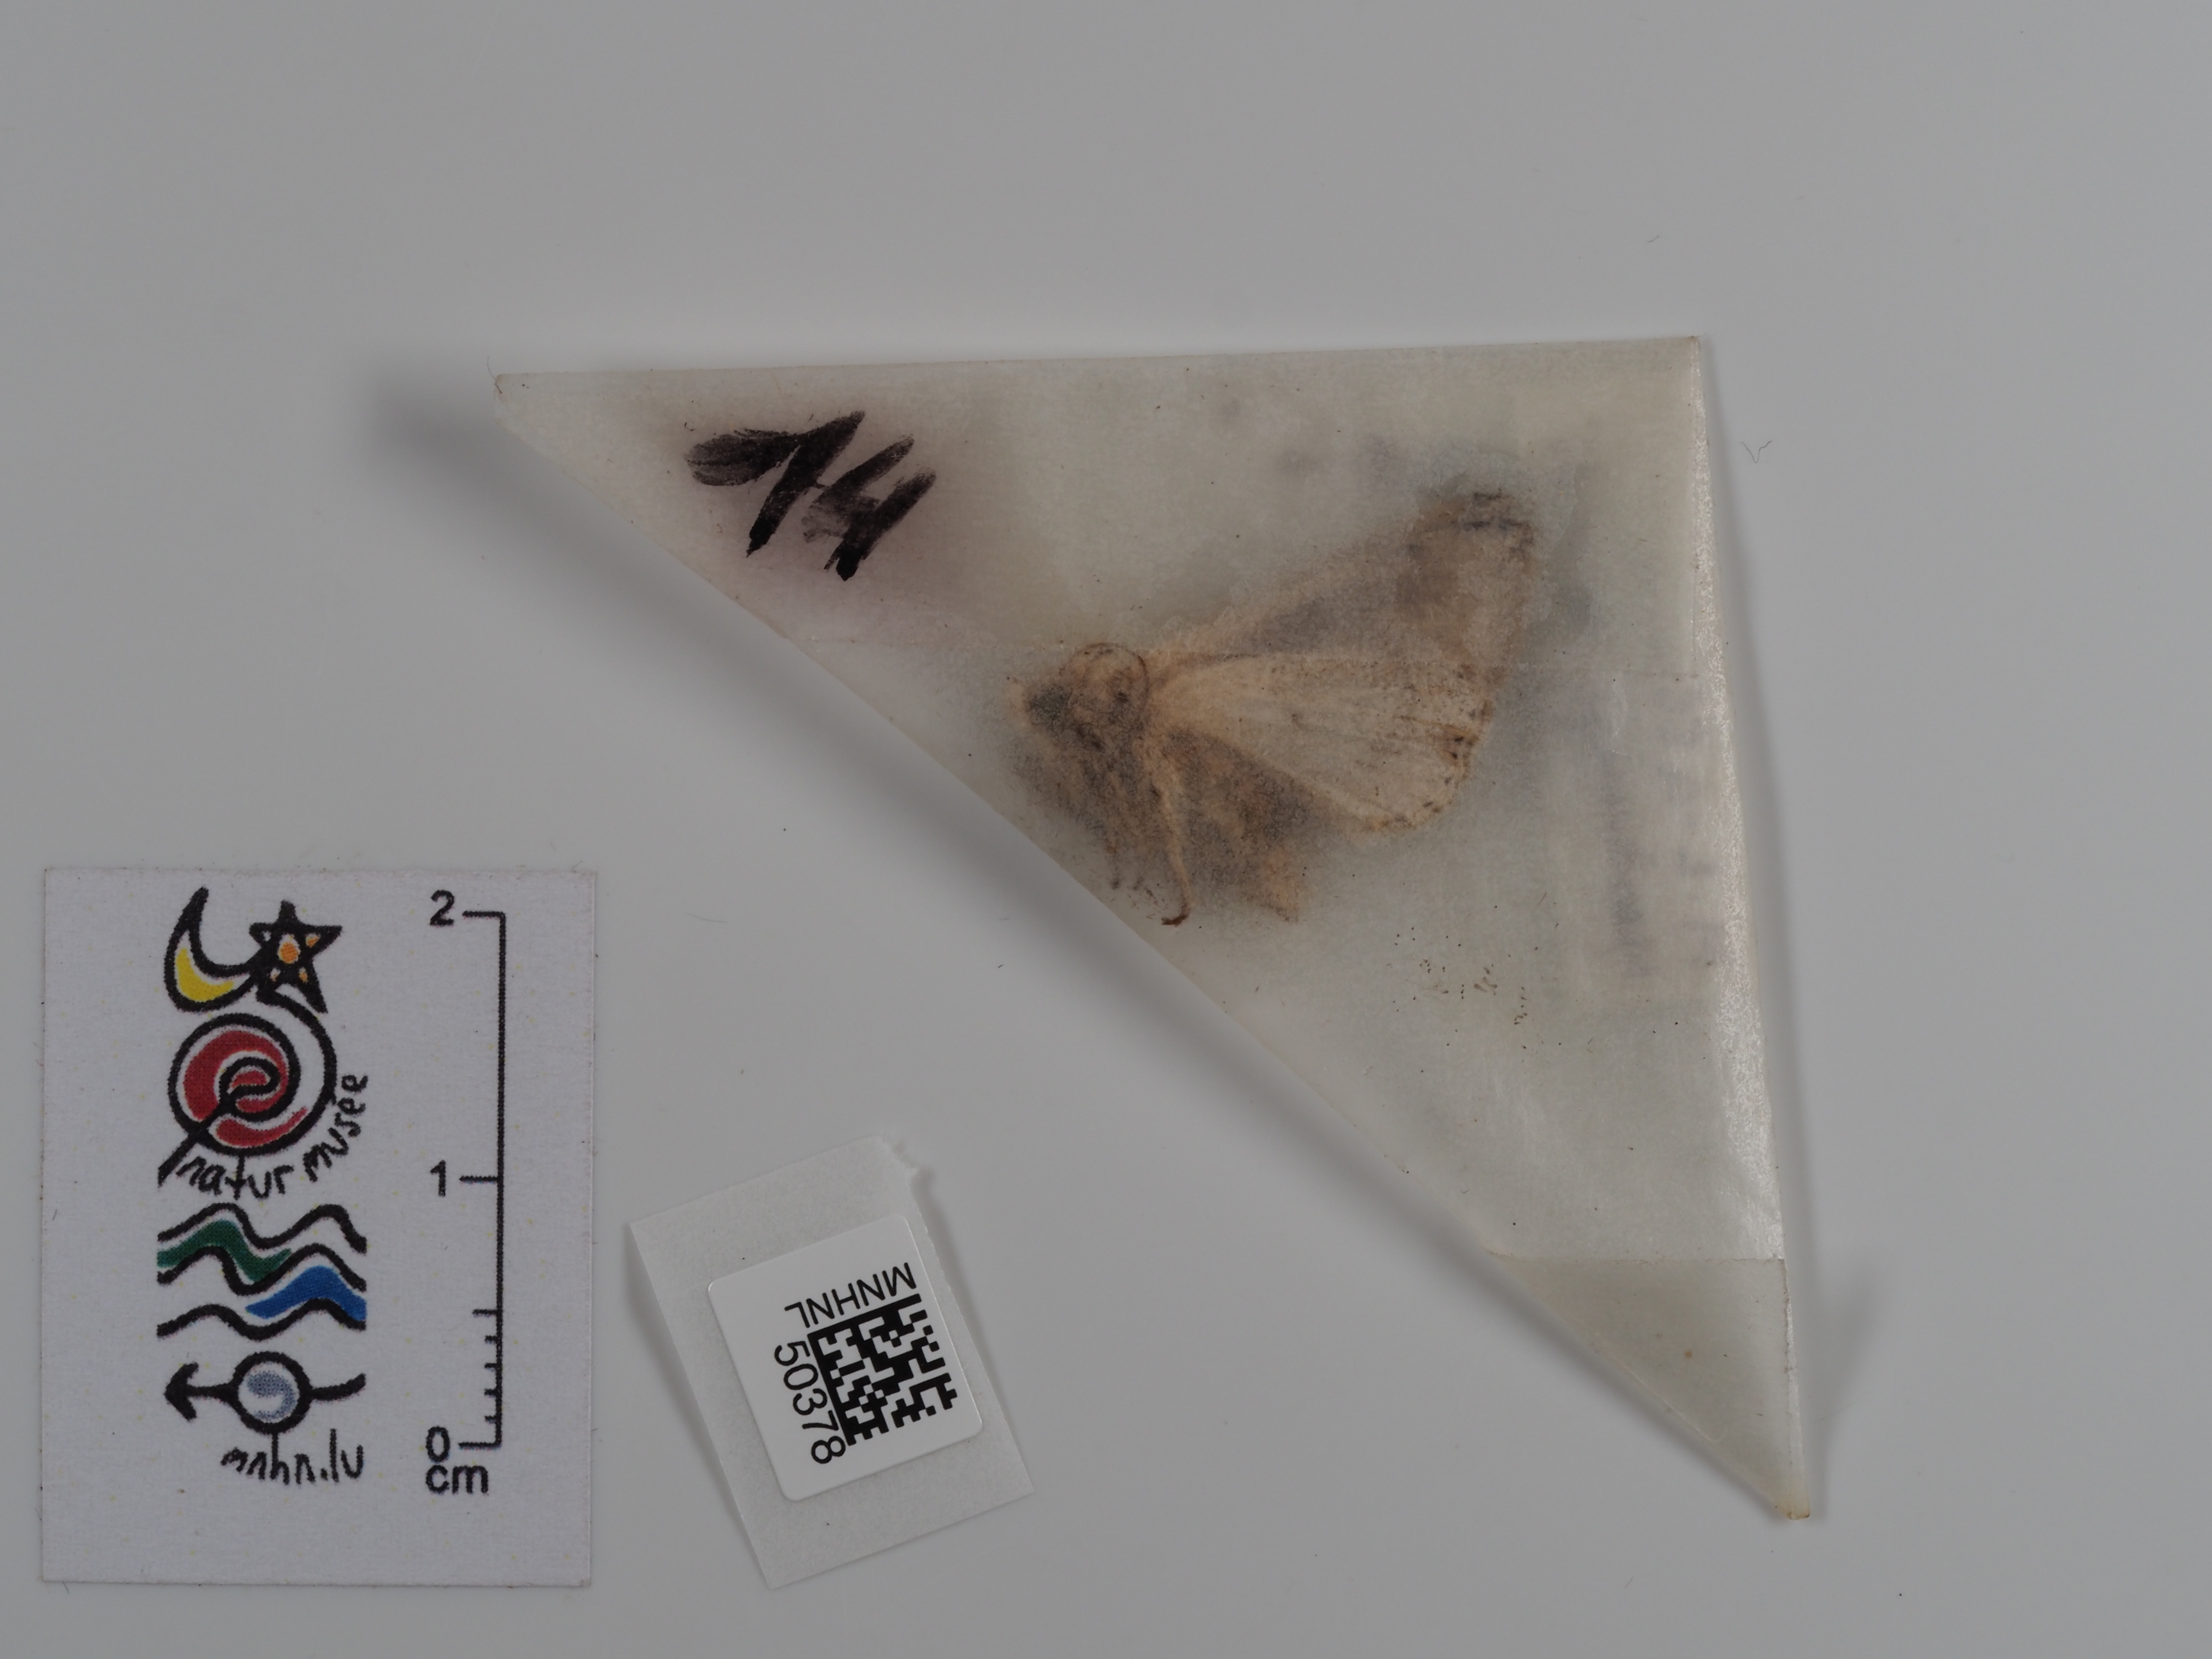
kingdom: Animalia
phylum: Arthropoda
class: Insecta
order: Lepidoptera
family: Noctuidae
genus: Mythimna
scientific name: Mythimna l-album
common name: L-album wainscot
